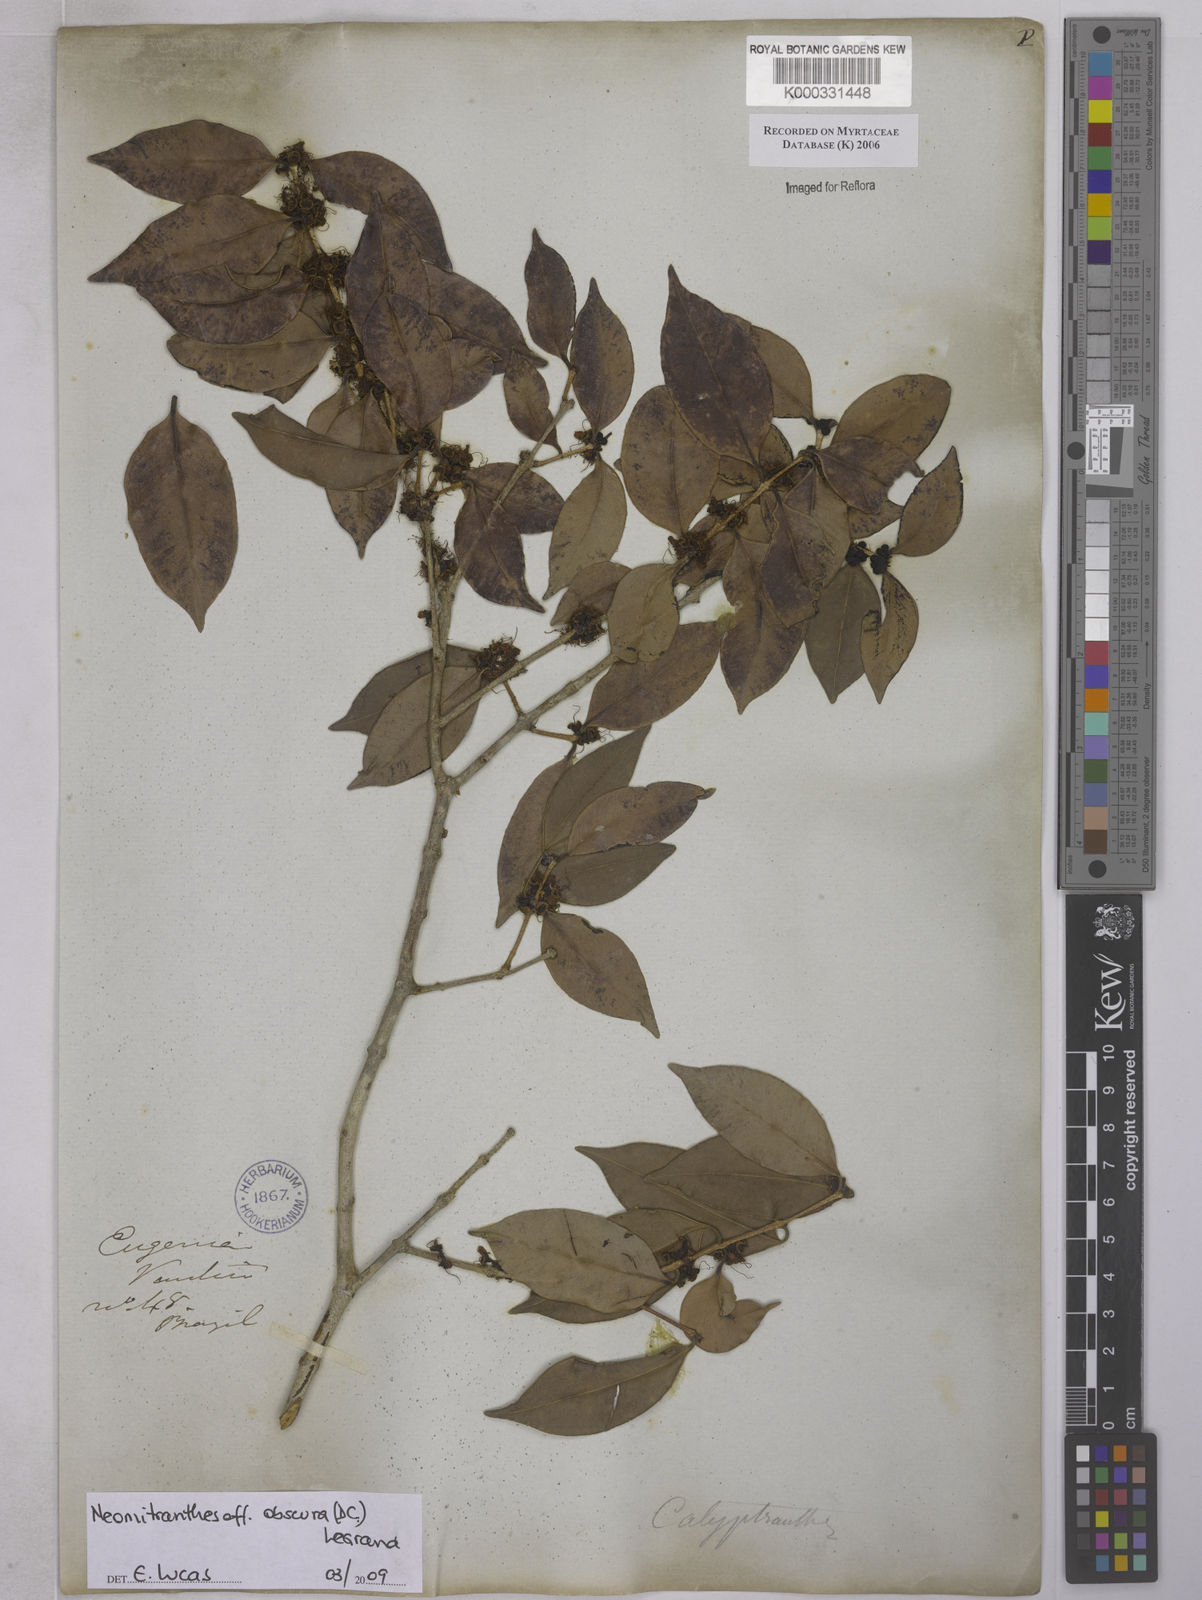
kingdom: Plantae
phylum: Tracheophyta
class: Magnoliopsida
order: Myrtales
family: Myrtaceae
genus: Calyptranthes
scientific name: Calyptranthes
